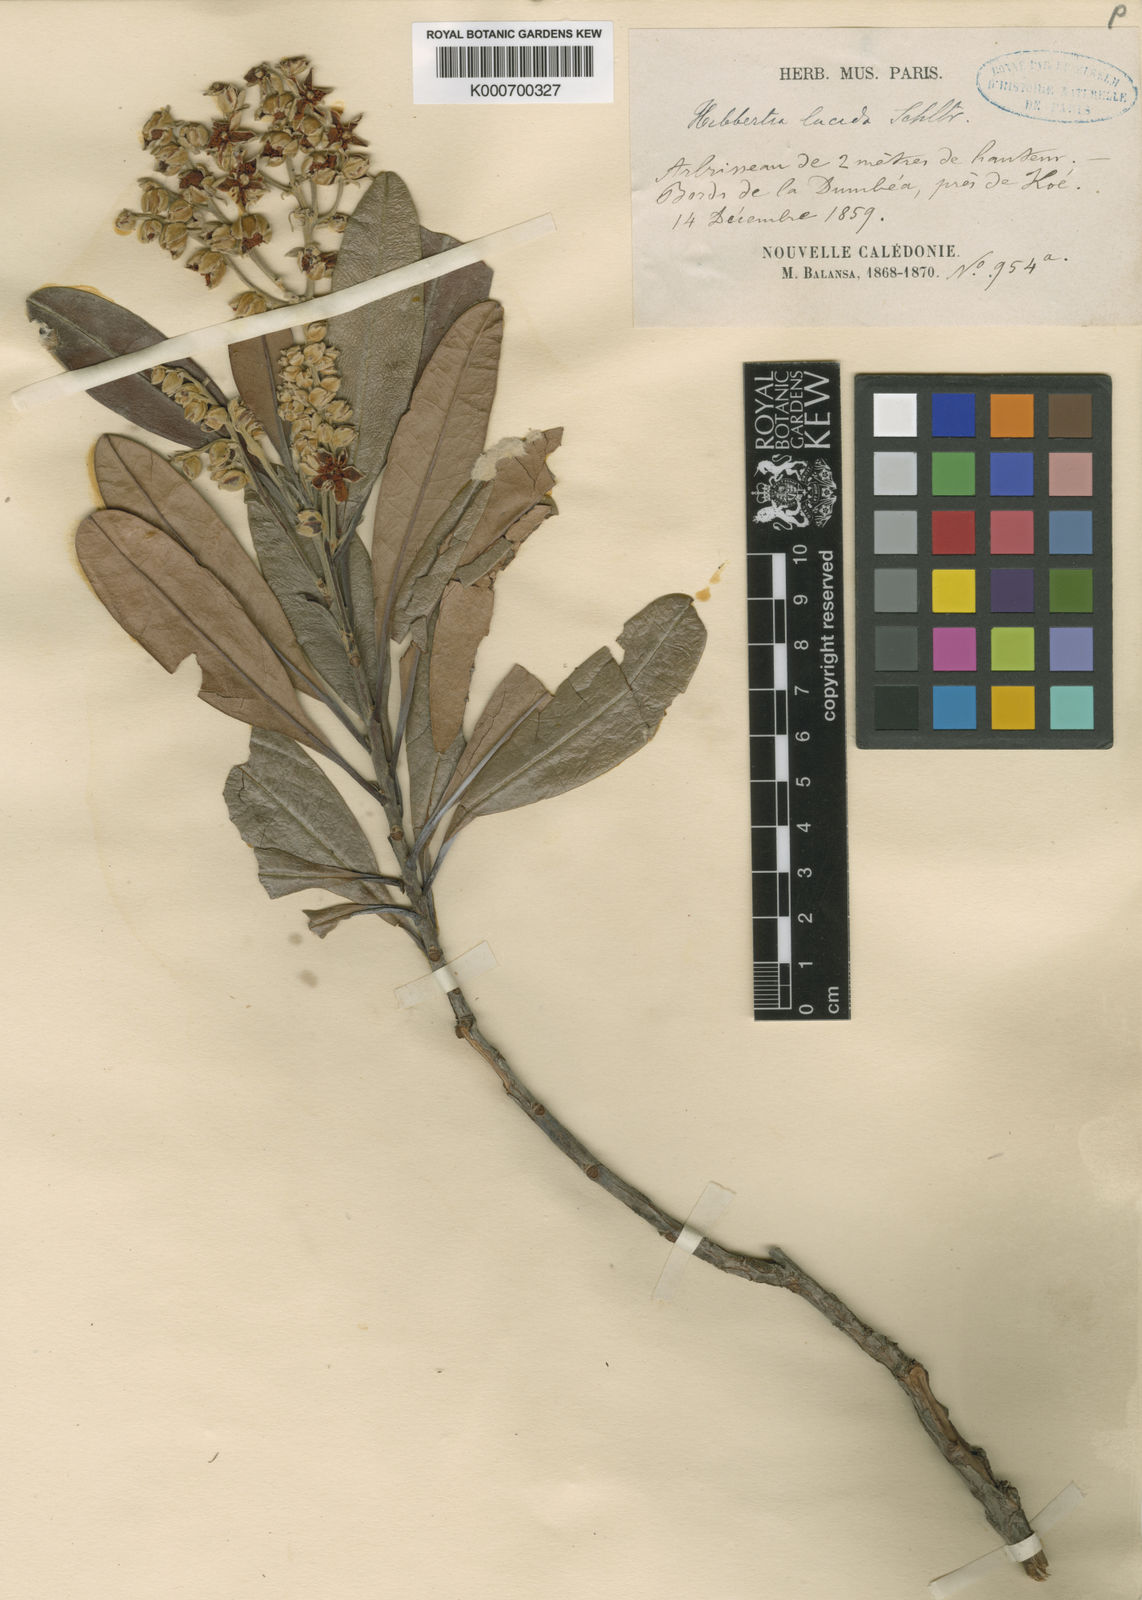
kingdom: Plantae
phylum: Tracheophyta
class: Magnoliopsida
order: Dilleniales
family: Dilleniaceae
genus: Hibbertia
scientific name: Hibbertia vieillardii
